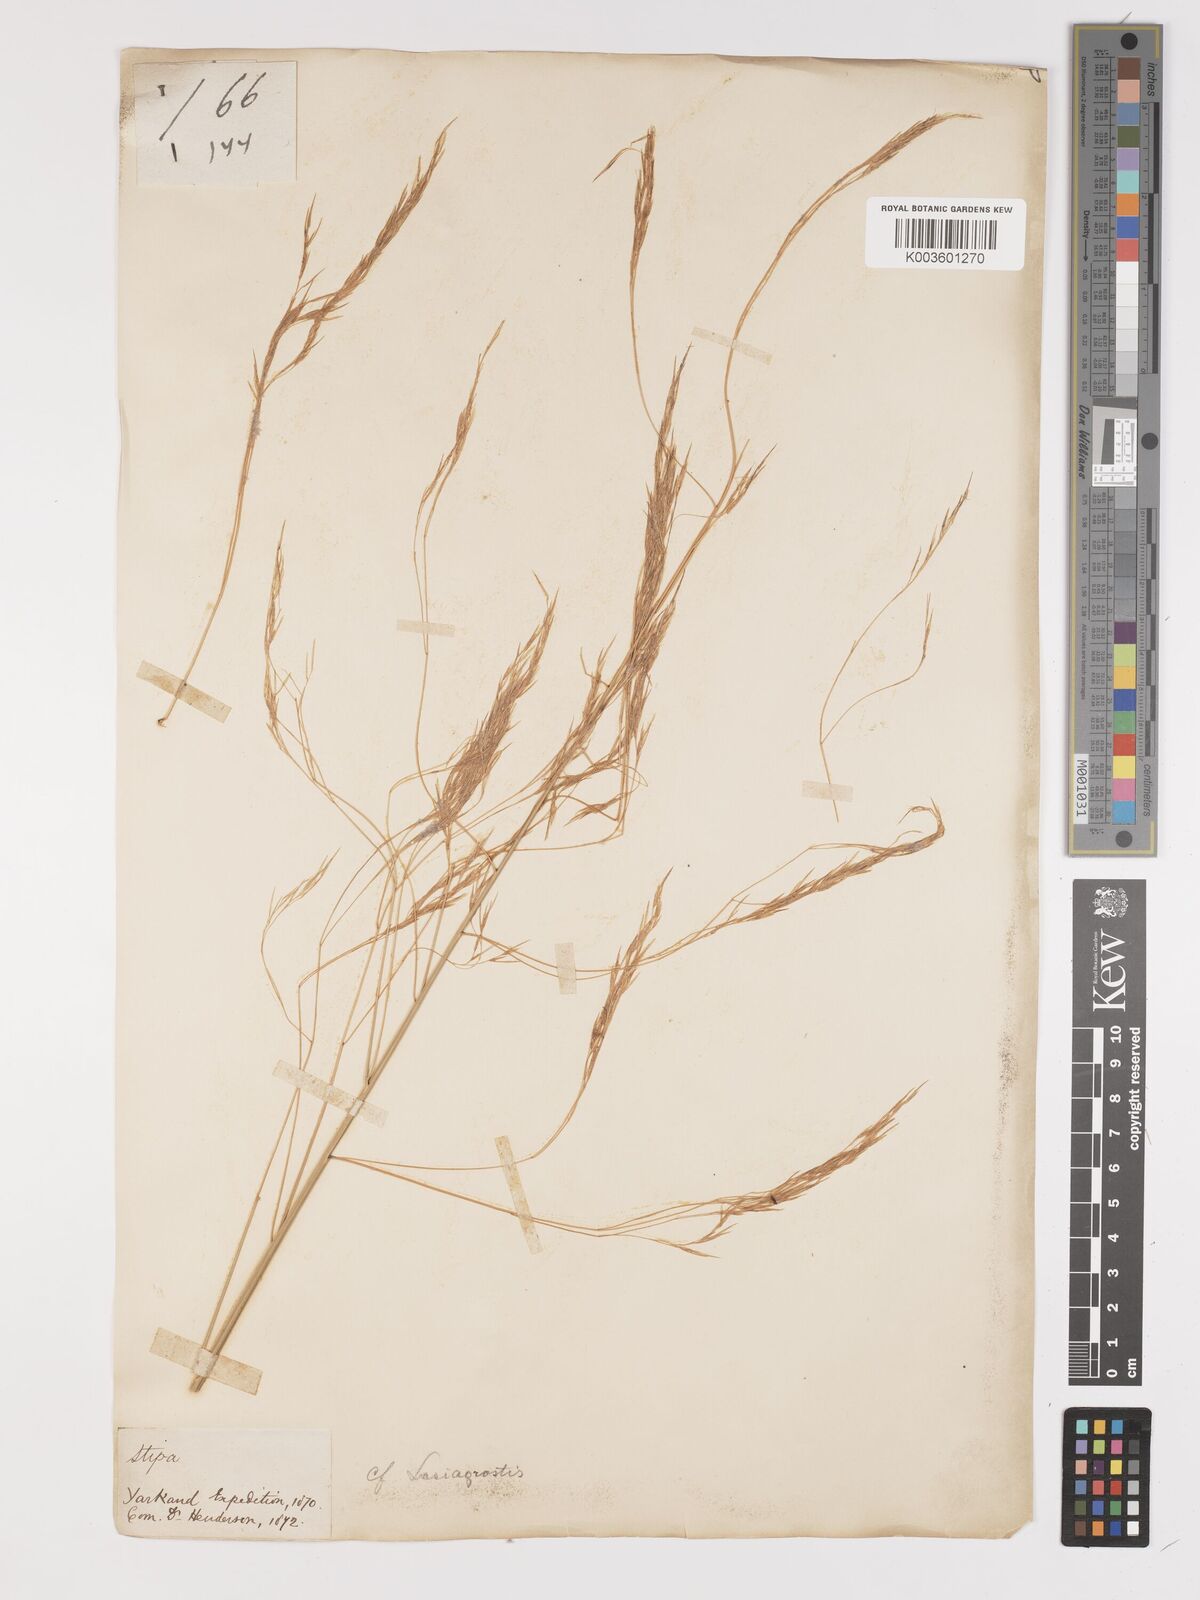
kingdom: Plantae
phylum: Tracheophyta
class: Liliopsida
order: Poales
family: Poaceae
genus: Neotrinia
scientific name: Neotrinia splendens
